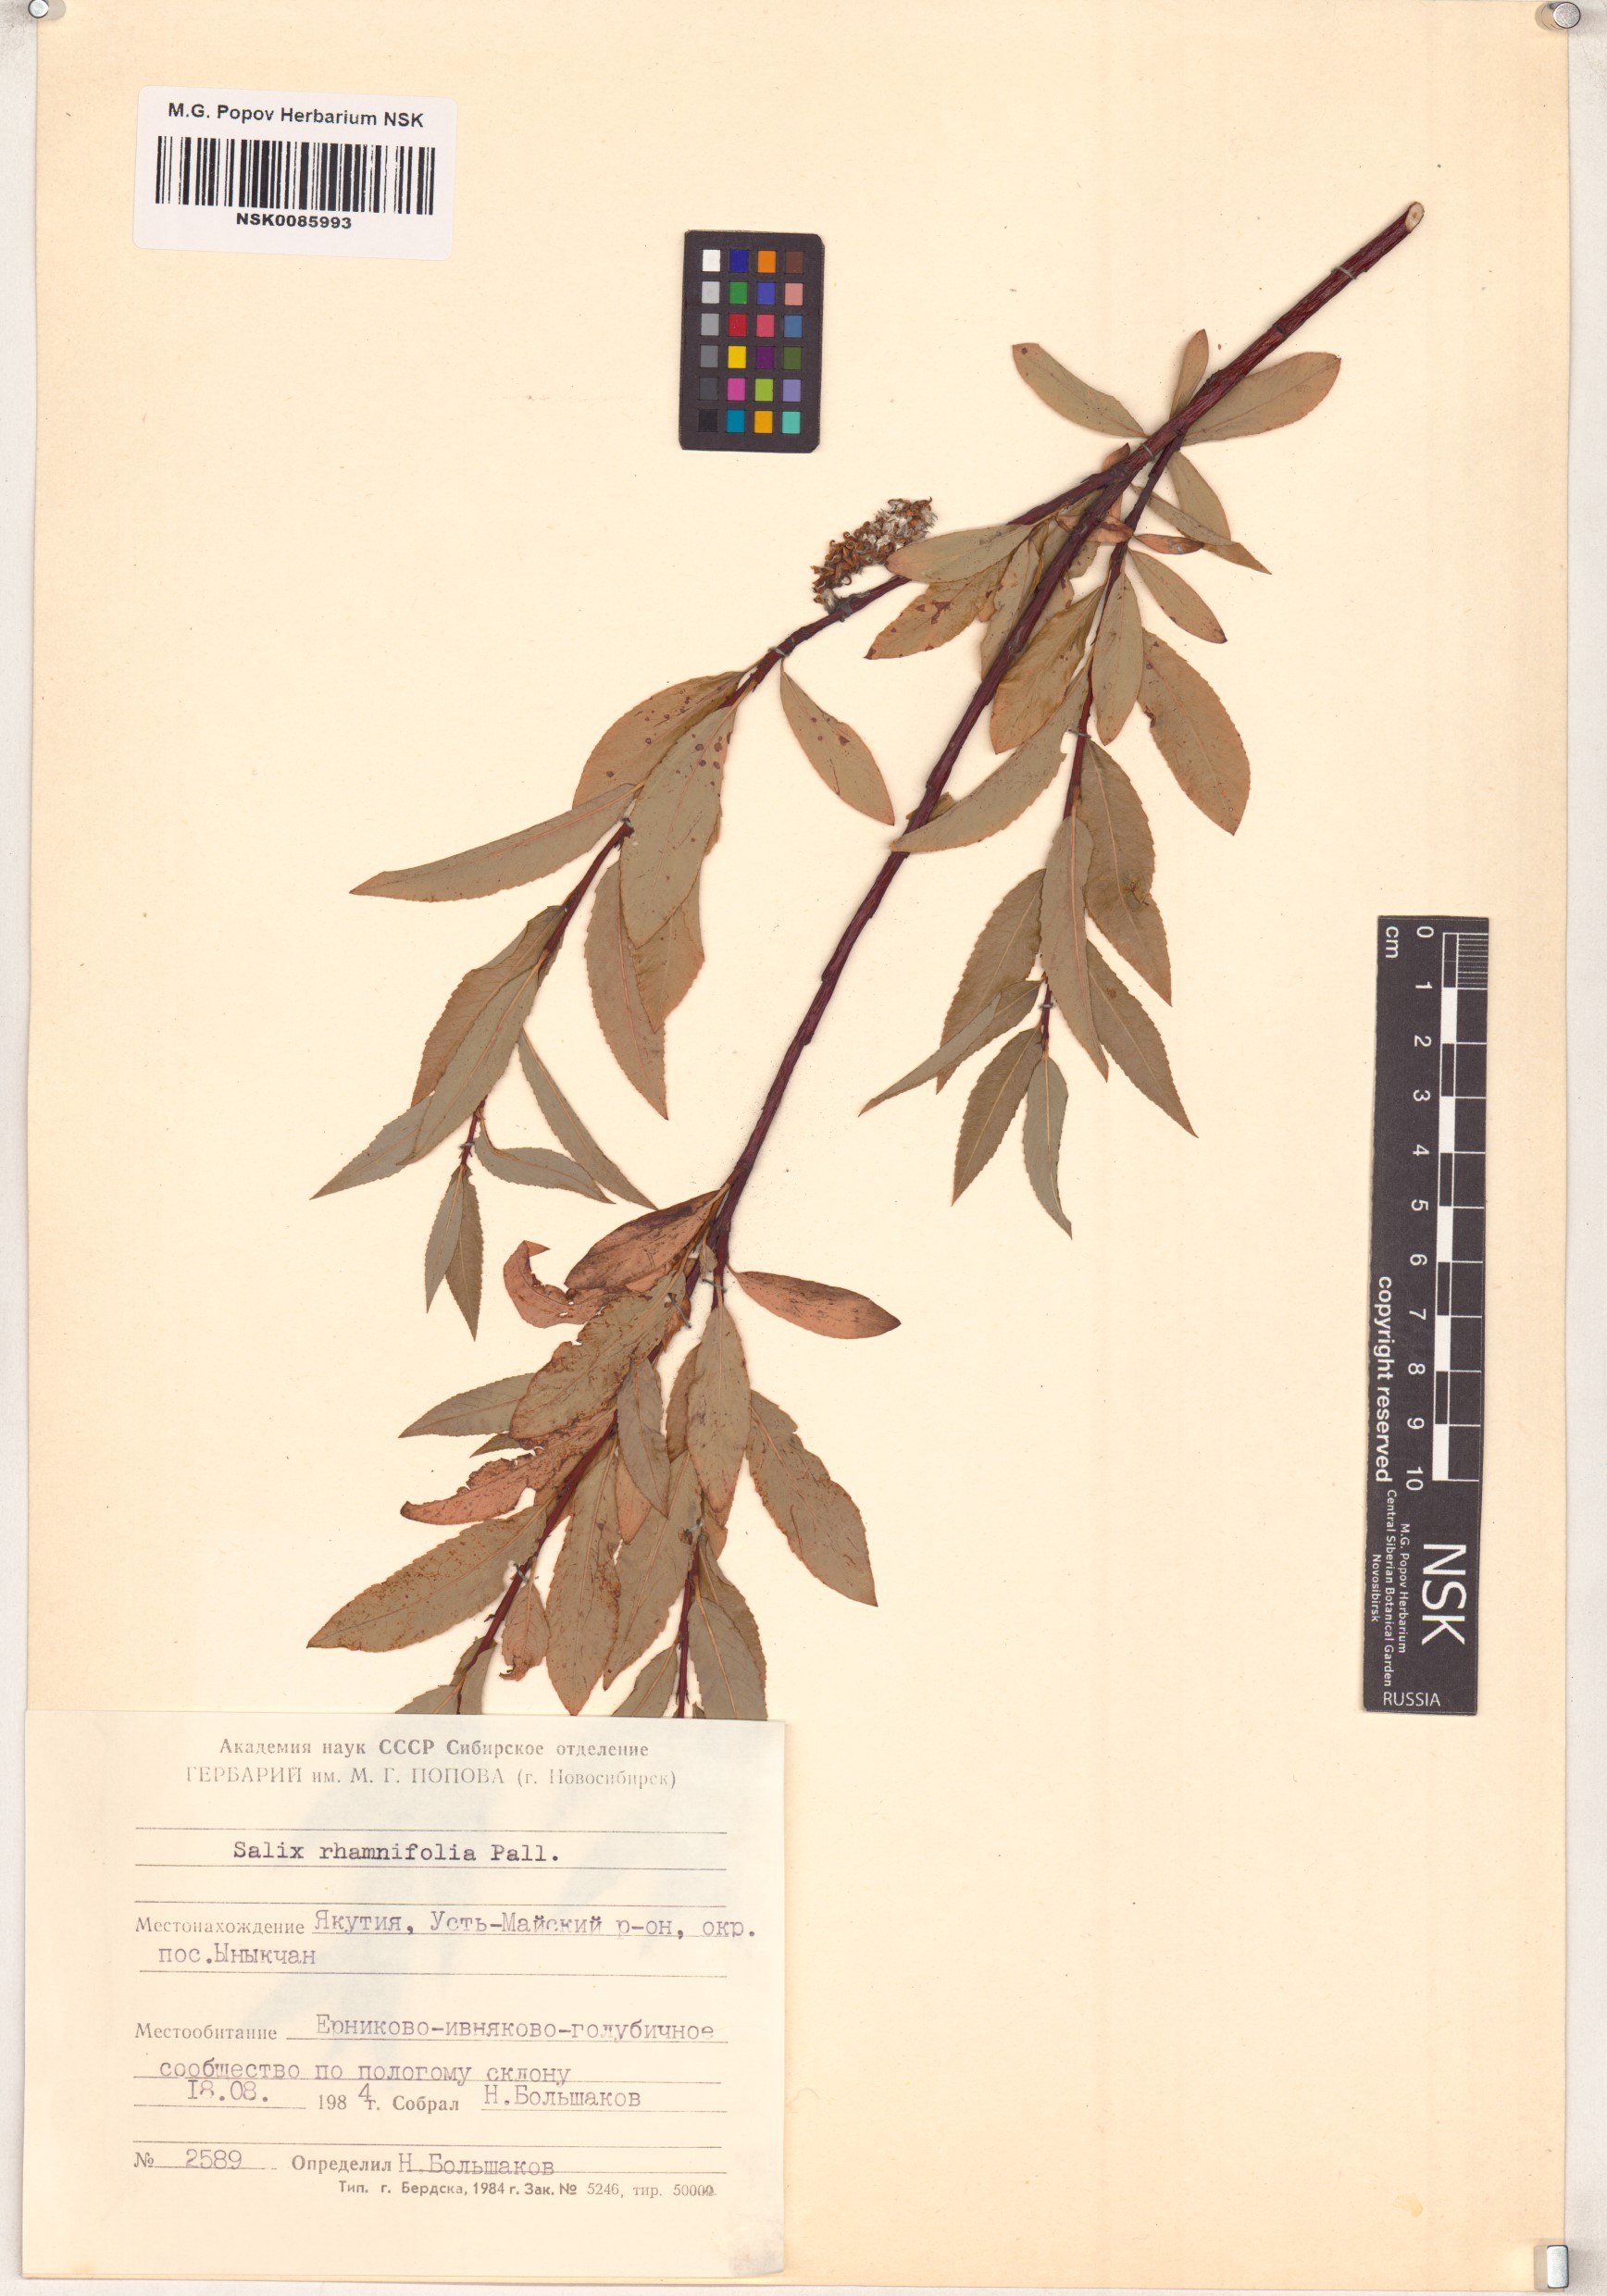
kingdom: Plantae
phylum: Tracheophyta
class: Magnoliopsida
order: Malpighiales
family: Salicaceae
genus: Salix
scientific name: Salix rhamnifolia
